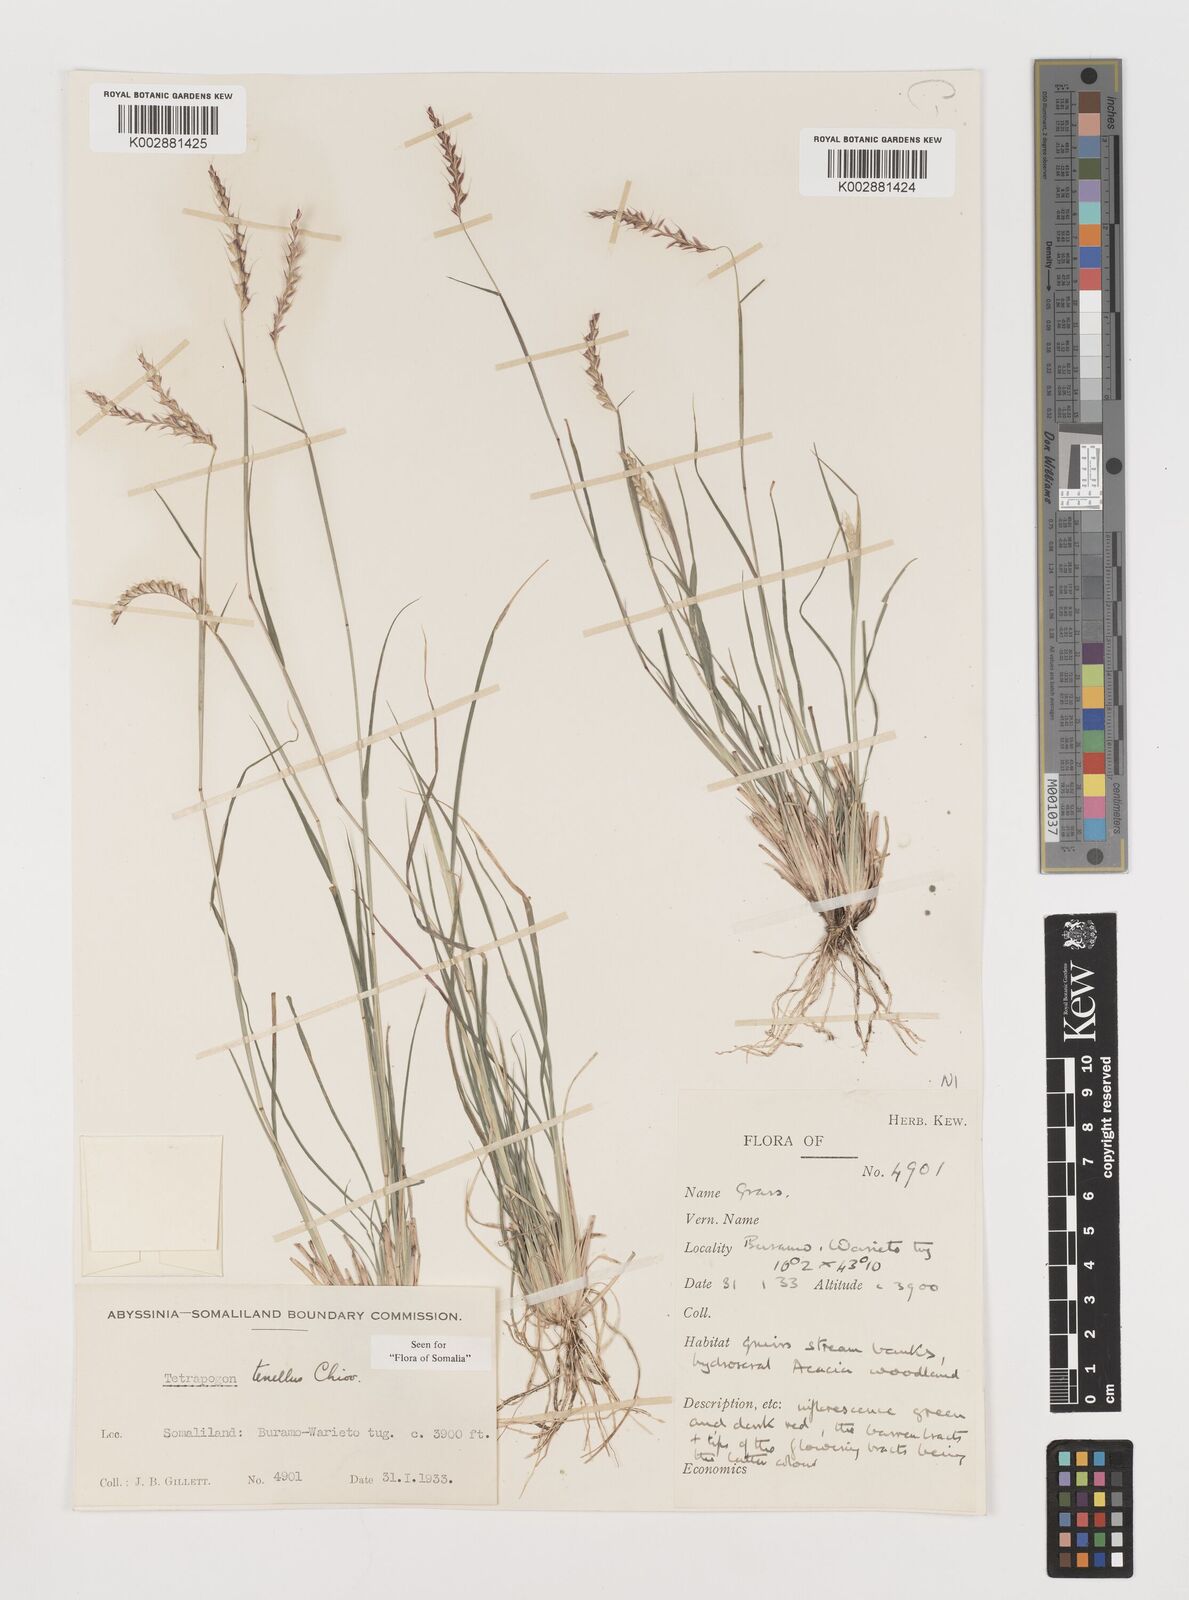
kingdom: Plantae
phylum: Tracheophyta
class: Liliopsida
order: Poales
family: Poaceae
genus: Tetrapogon
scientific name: Tetrapogon tenellus
